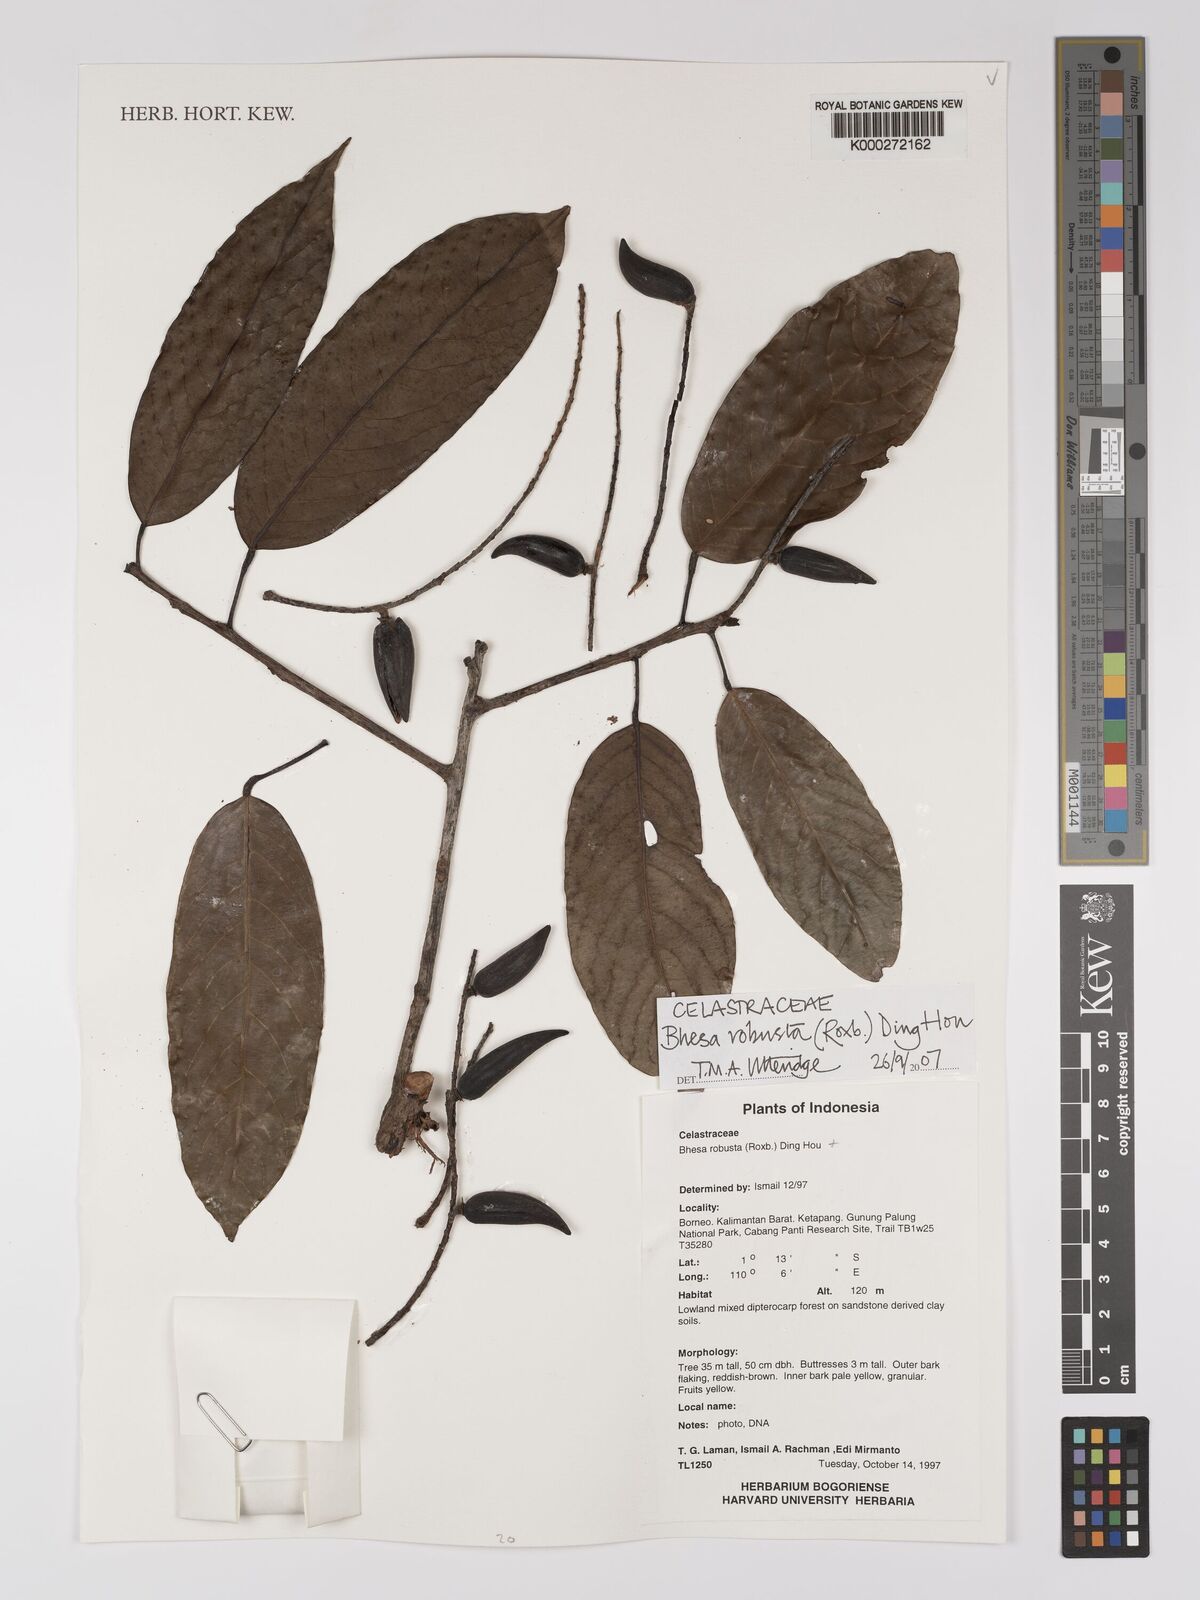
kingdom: Plantae
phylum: Tracheophyta
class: Magnoliopsida
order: Malpighiales
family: Centroplacaceae
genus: Bhesa
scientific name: Bhesa robusta
